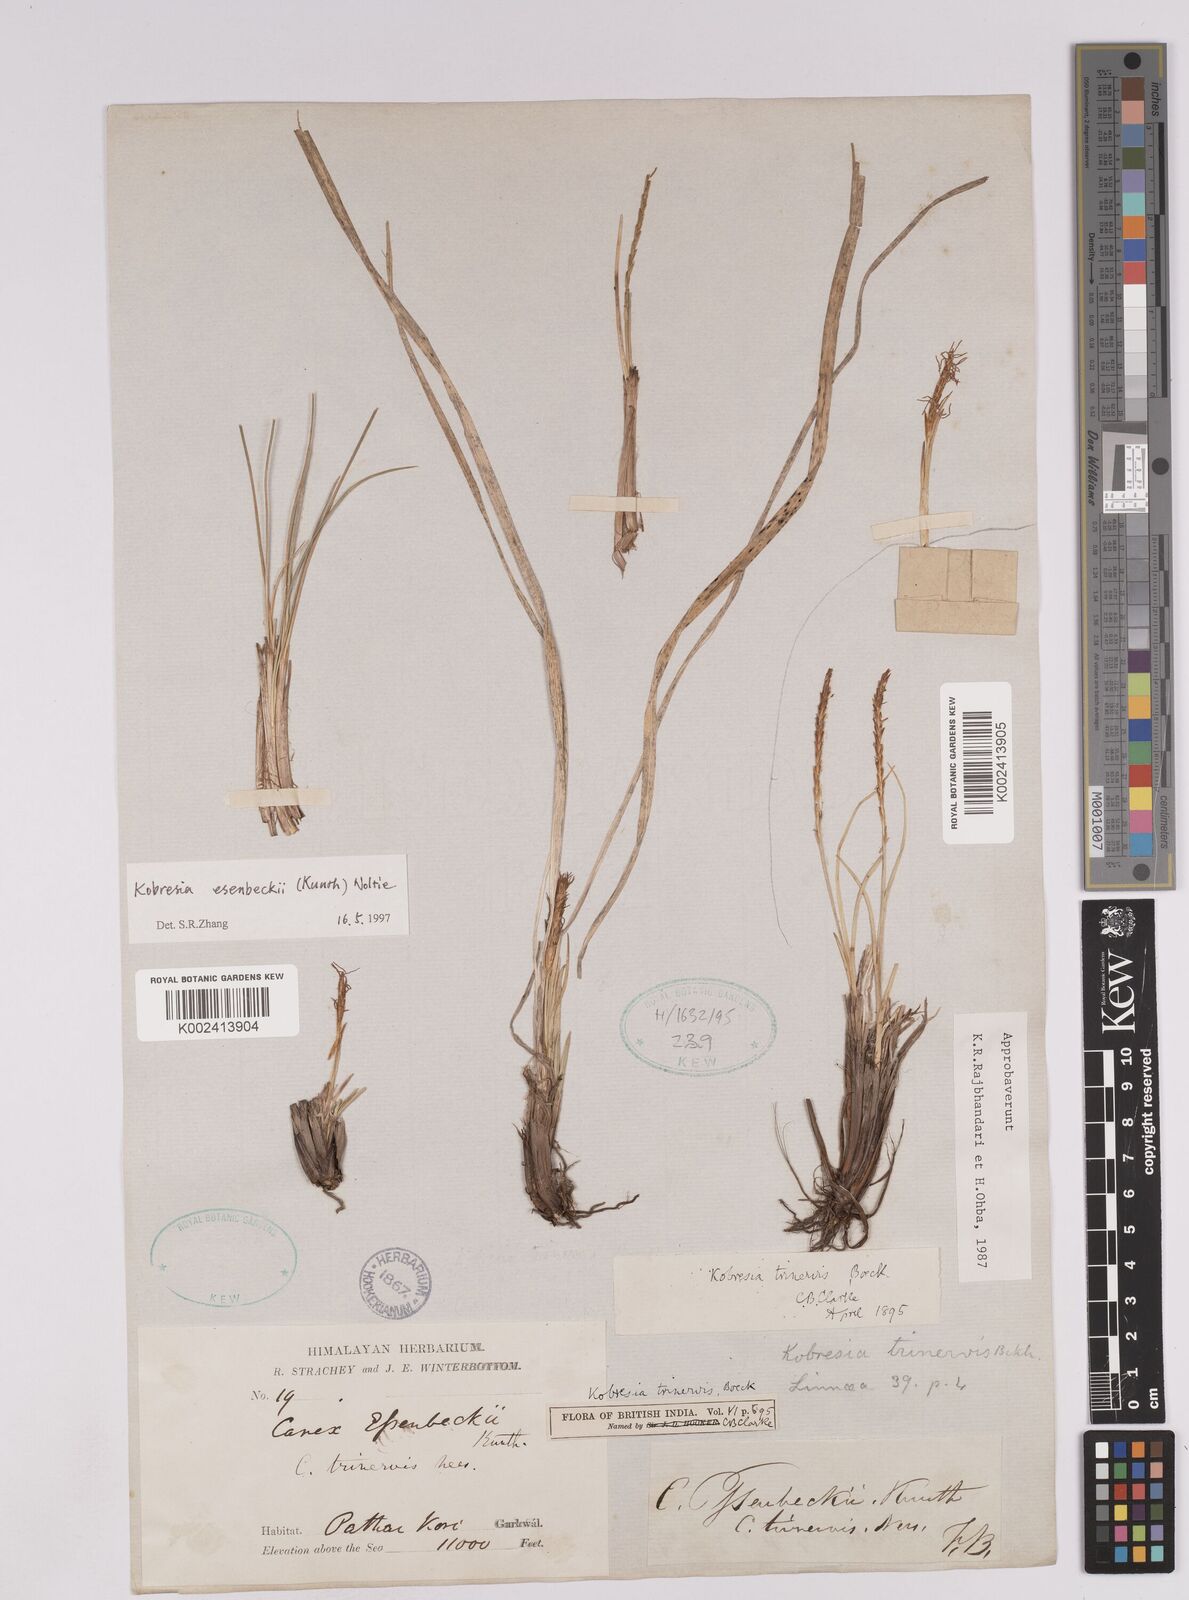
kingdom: Plantae
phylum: Tracheophyta
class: Liliopsida
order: Poales
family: Cyperaceae
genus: Carex
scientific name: Carex esenbeckii
